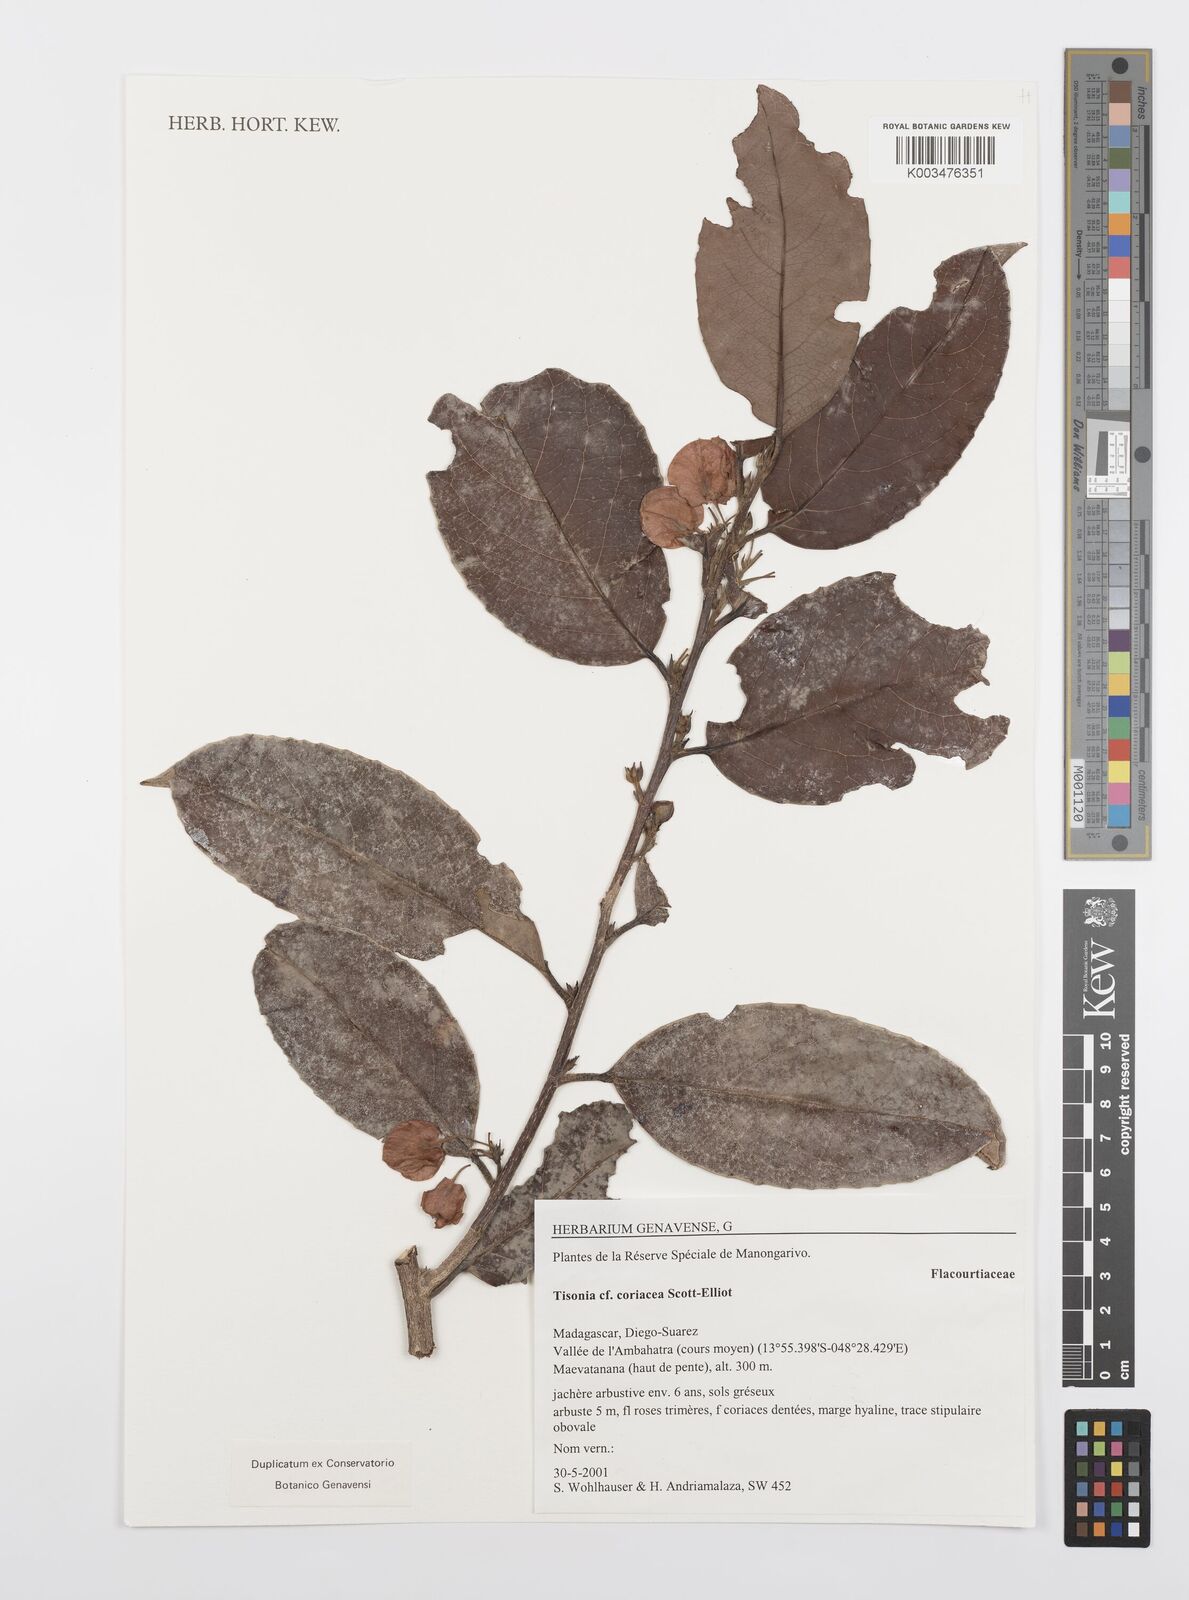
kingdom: Plantae
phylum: Tracheophyta
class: Magnoliopsida
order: Malpighiales
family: Salicaceae
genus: Tisonia
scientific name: Tisonia coriacea
